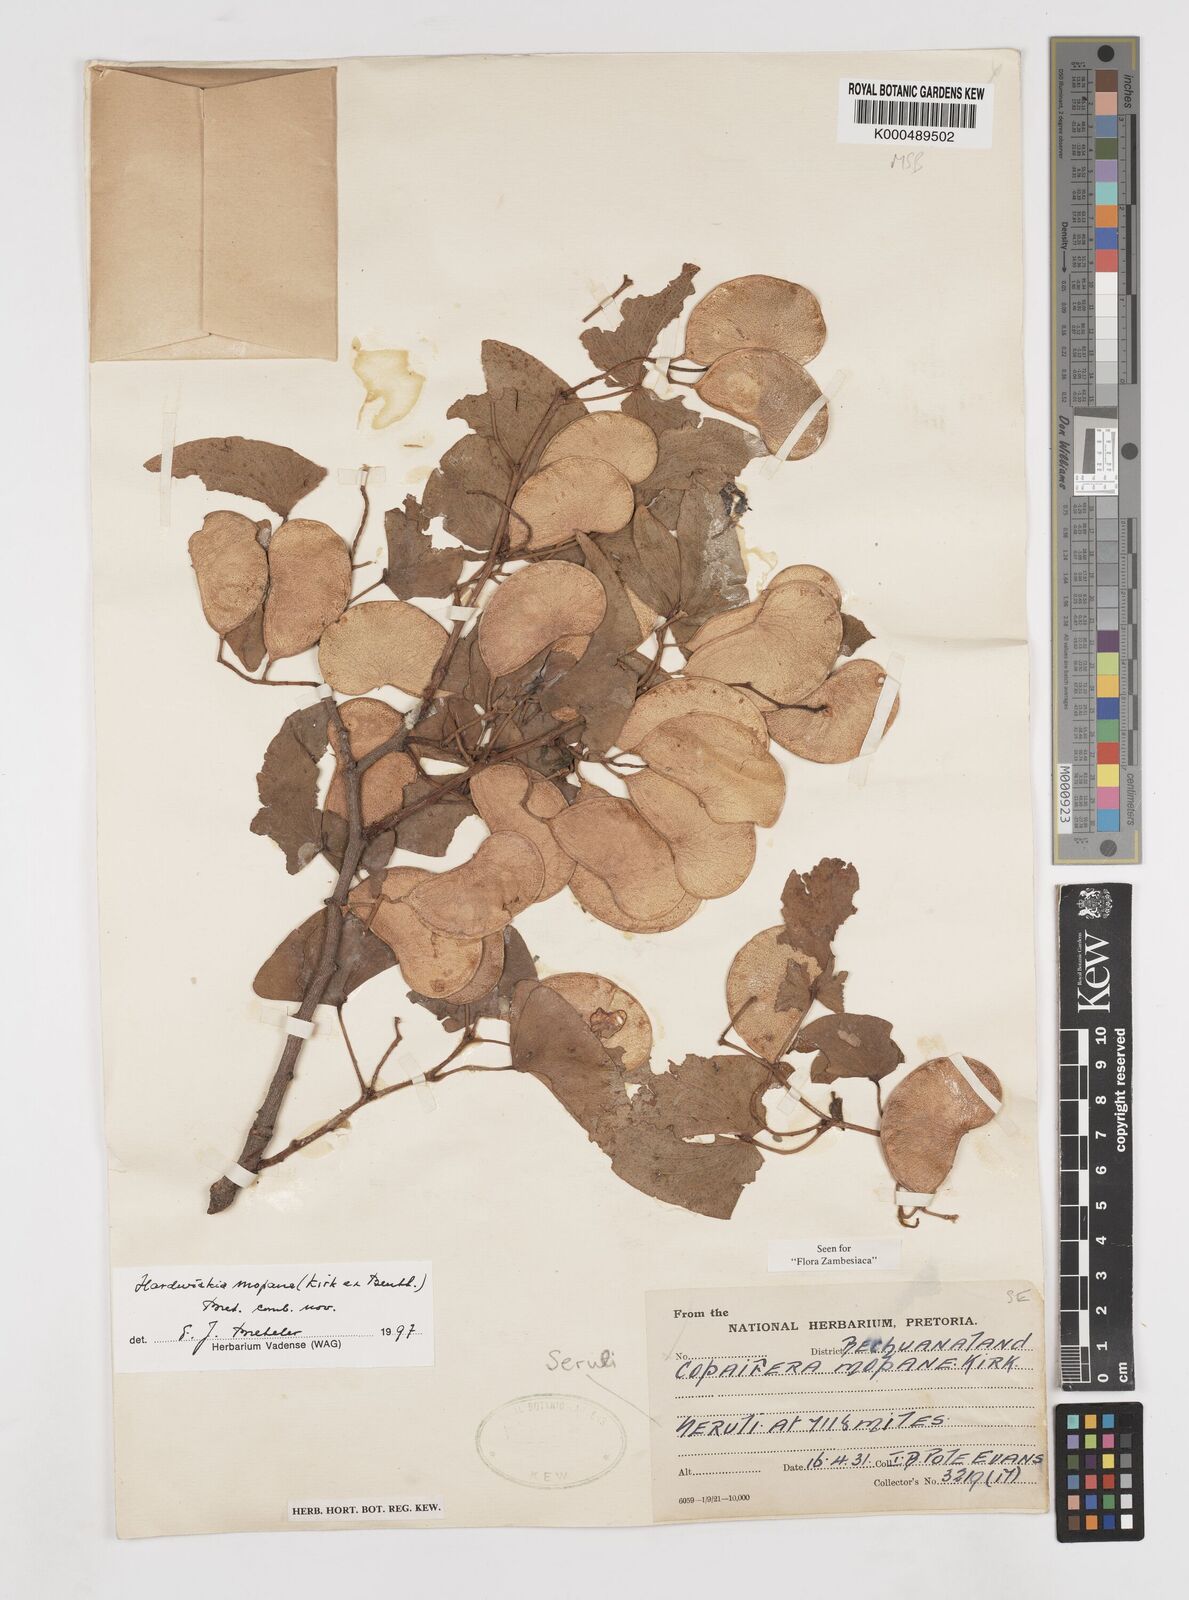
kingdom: Plantae
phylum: Tracheophyta
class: Magnoliopsida
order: Fabales
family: Fabaceae
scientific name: Fabaceae
